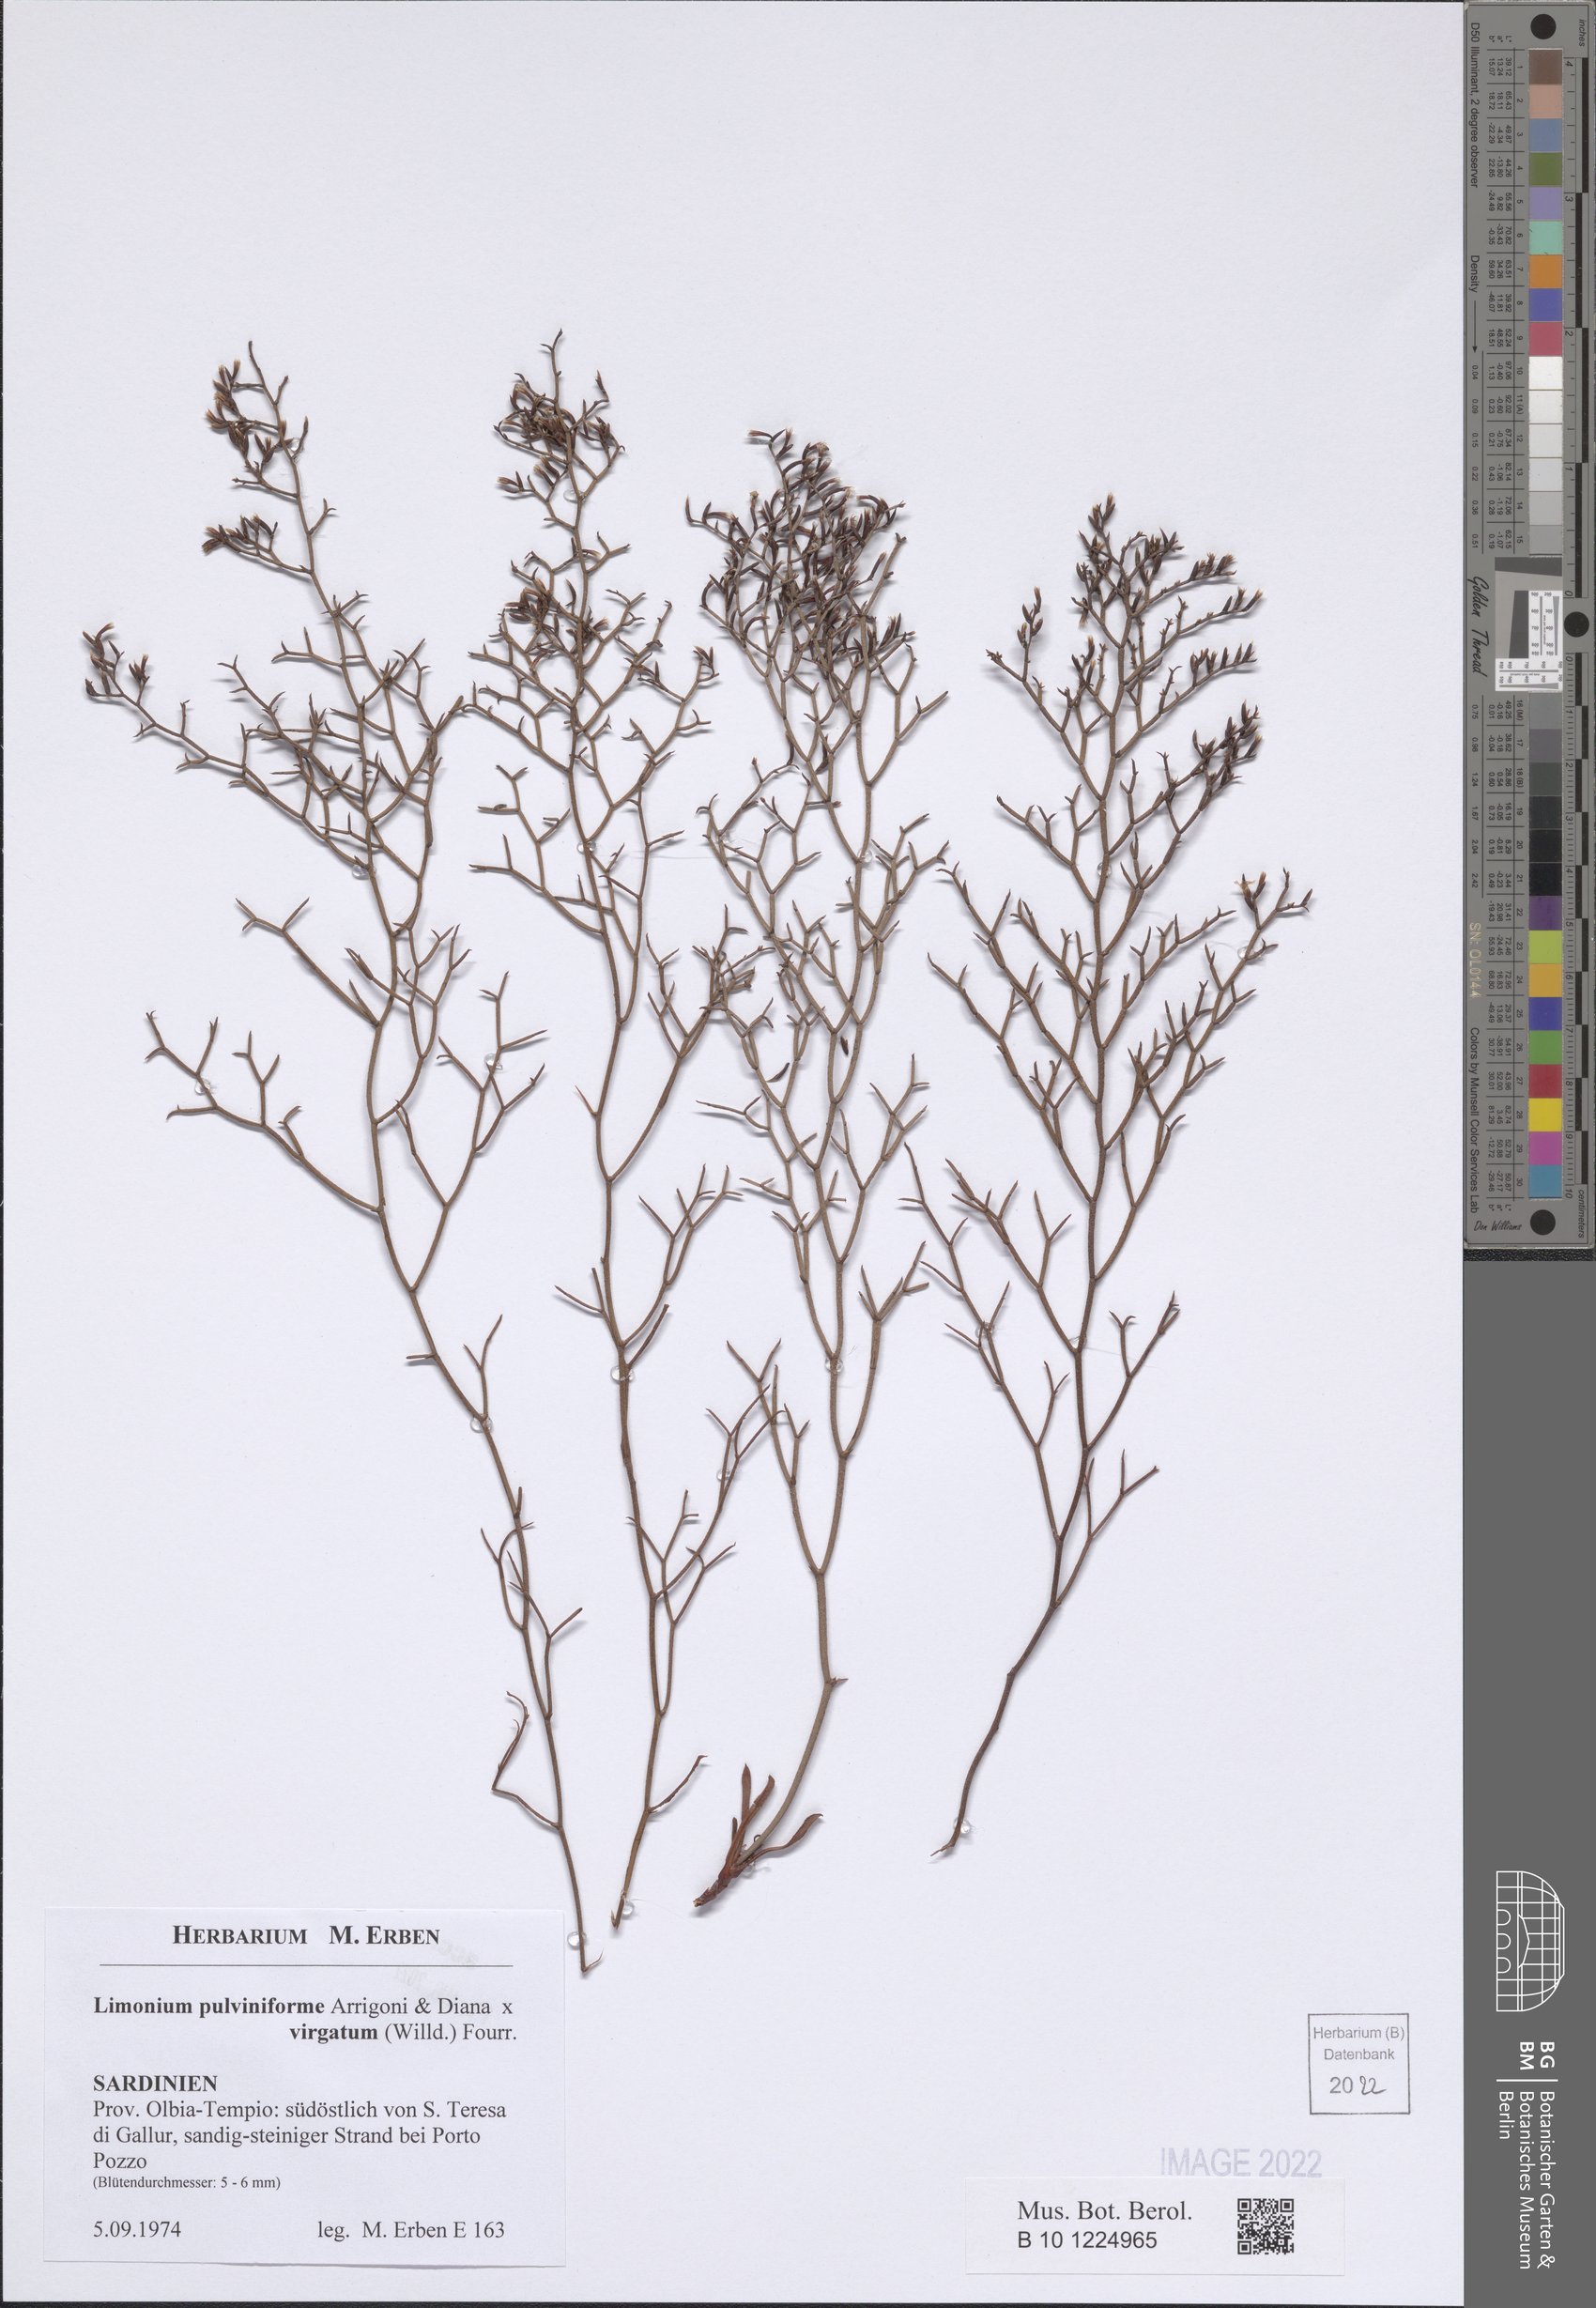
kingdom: Plantae
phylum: Tracheophyta
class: Magnoliopsida
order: Caryophyllales
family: Plumbaginaceae
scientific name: Plumbaginaceae
